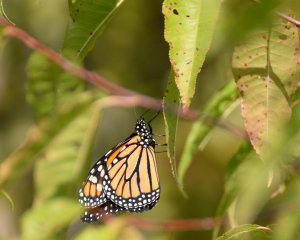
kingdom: Animalia
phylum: Arthropoda
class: Insecta
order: Lepidoptera
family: Nymphalidae
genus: Danaus
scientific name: Danaus plexippus
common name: Monarch
